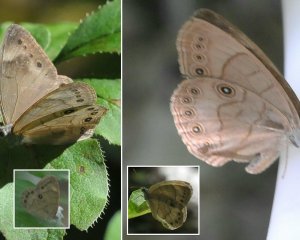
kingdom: Animalia
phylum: Arthropoda
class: Insecta
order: Lepidoptera
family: Nymphalidae
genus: Lethe
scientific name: Lethe eurydice
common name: Appalachian Eyed Brown
